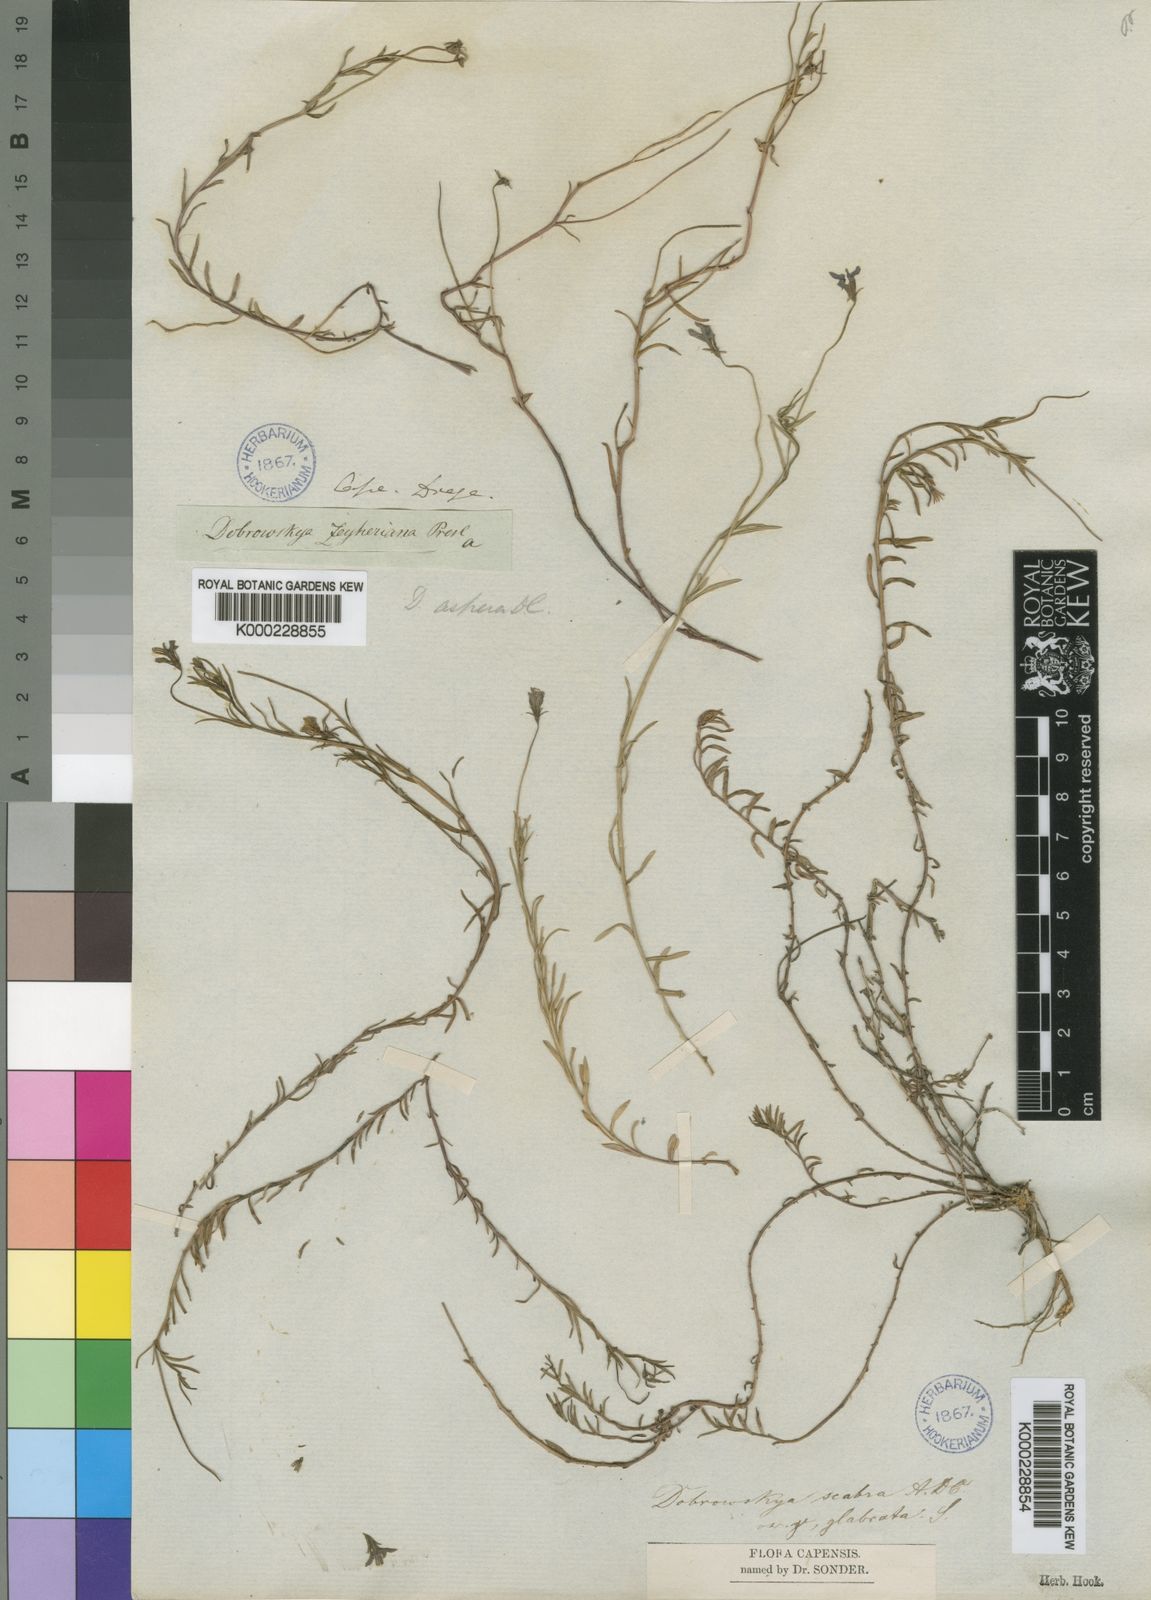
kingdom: Plantae
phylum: Tracheophyta
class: Magnoliopsida
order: Asterales
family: Campanulaceae
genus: Monopsis
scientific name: Monopsis unidentata
